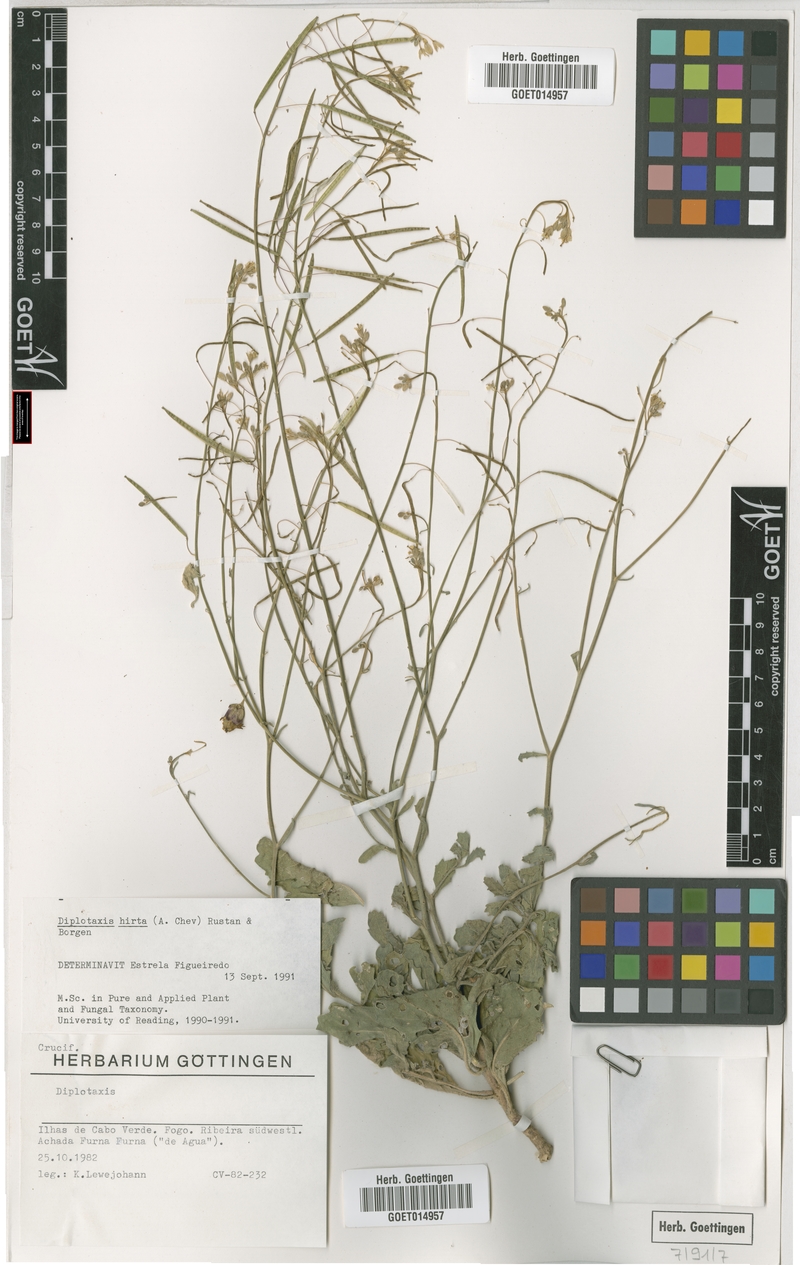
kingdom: Plantae
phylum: Tracheophyta
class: Magnoliopsida
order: Brassicales
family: Brassicaceae
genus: Diplotaxis
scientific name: Diplotaxis hirta
